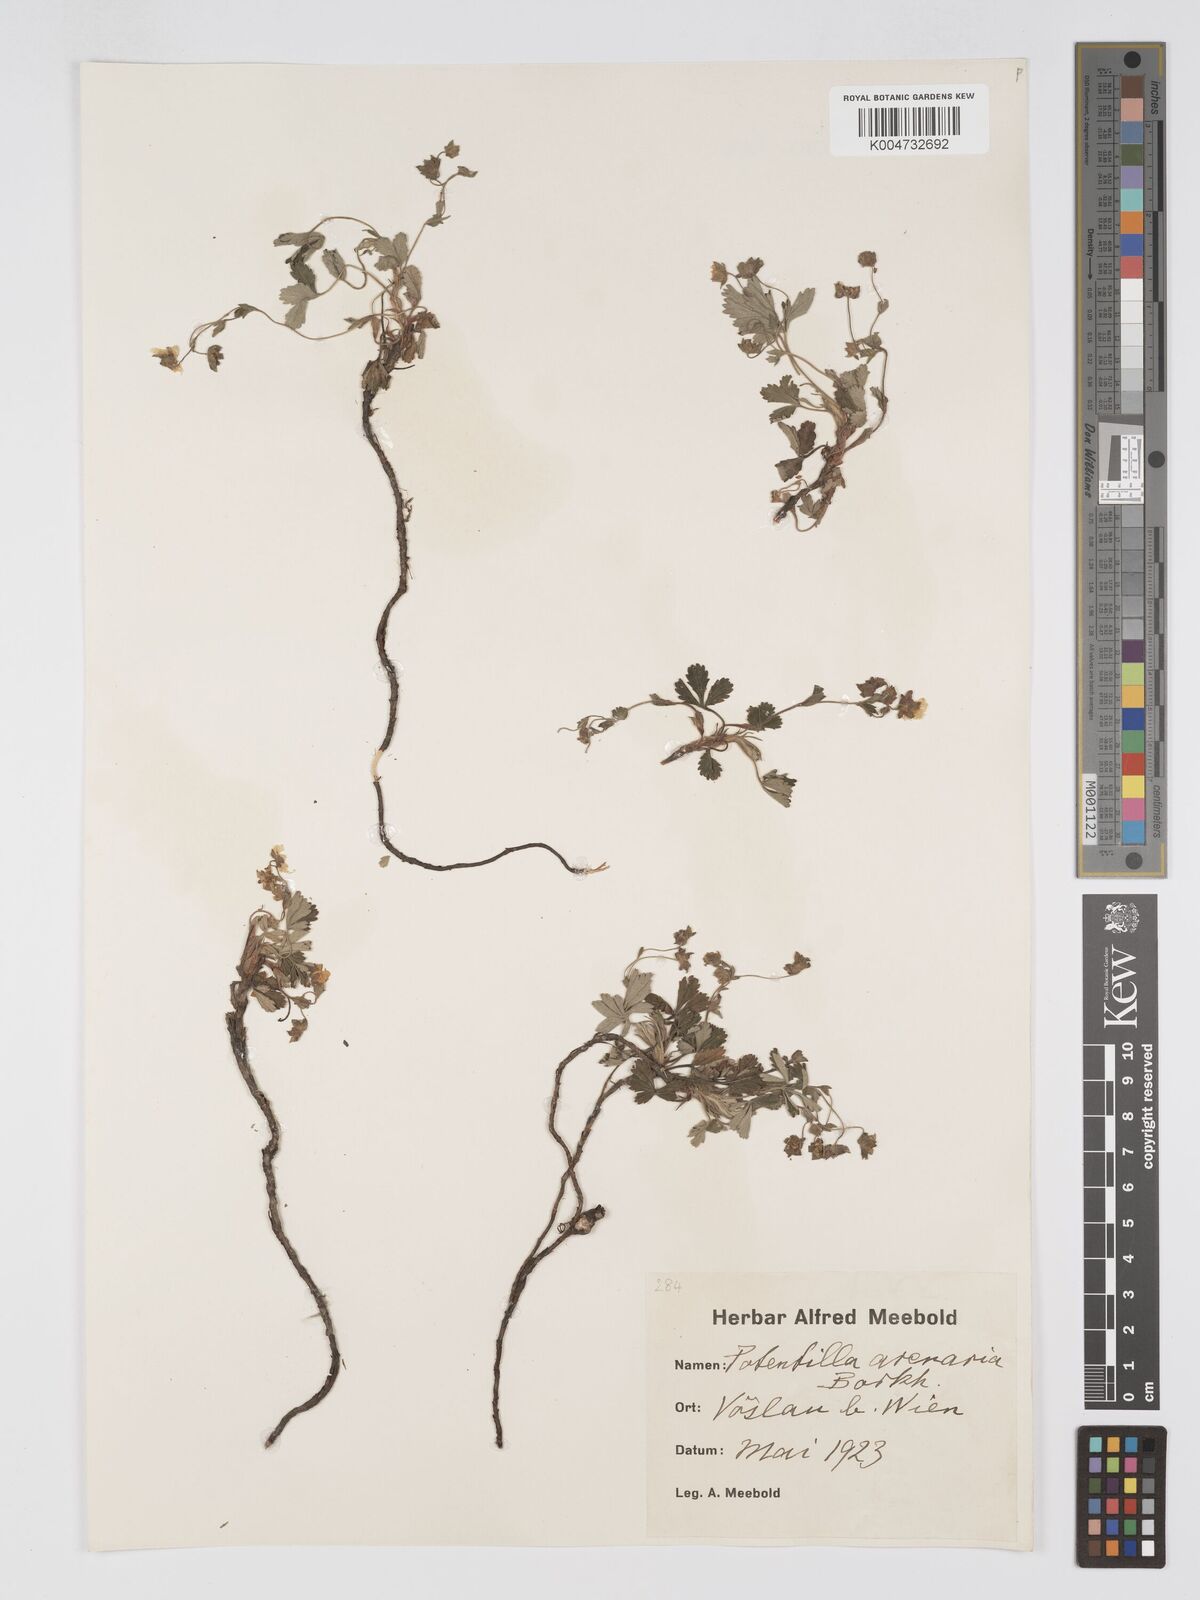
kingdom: Plantae
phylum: Tracheophyta
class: Magnoliopsida
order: Rosales
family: Rosaceae
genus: Potentilla
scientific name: Potentilla cinerea
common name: Ashy cinquefoil
